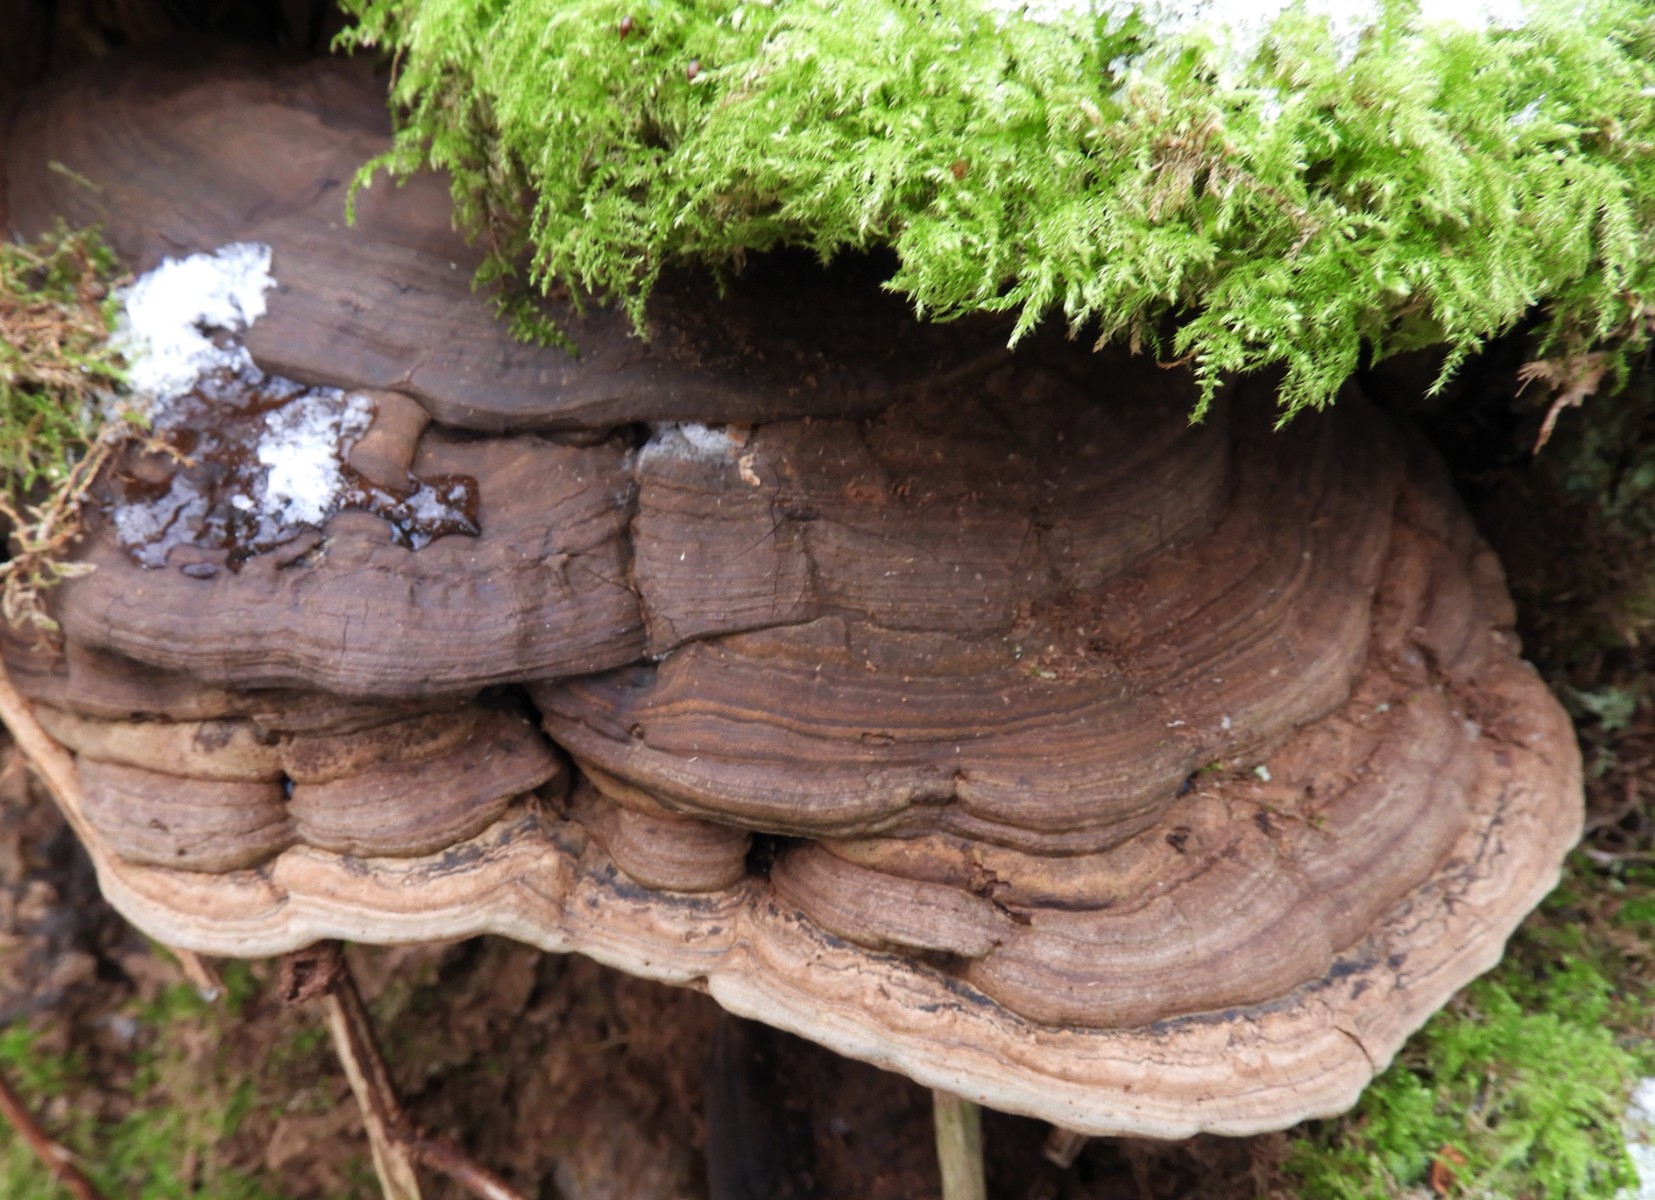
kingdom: Fungi
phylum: Basidiomycota
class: Agaricomycetes
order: Polyporales
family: Polyporaceae
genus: Ganoderma
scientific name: Ganoderma applanatum
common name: flad lakporesvamp
